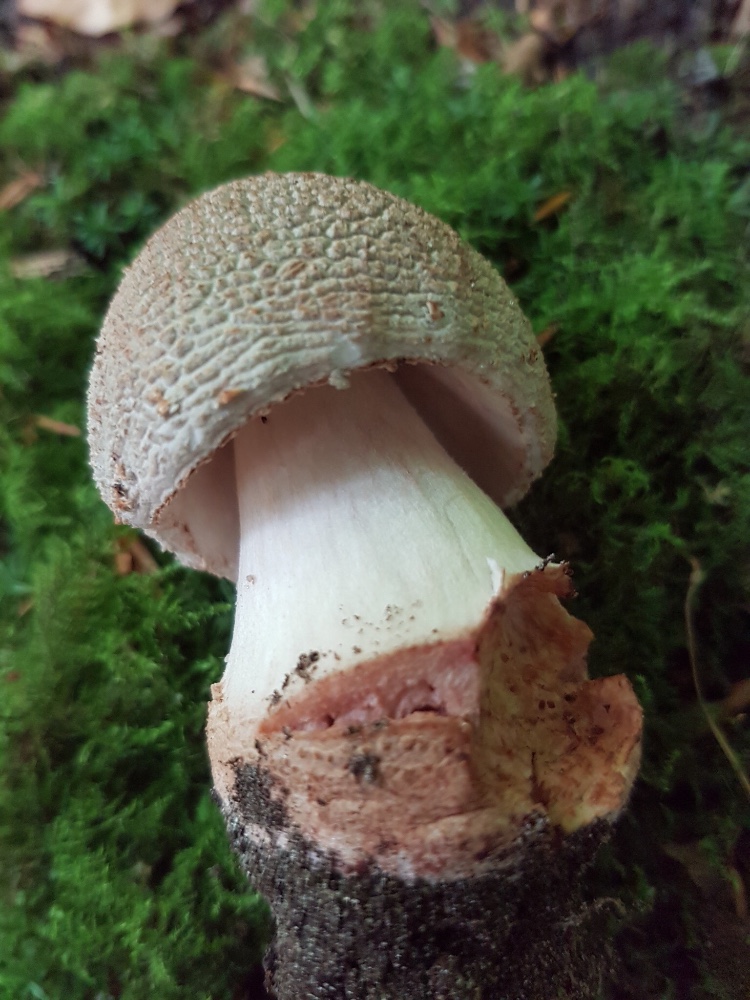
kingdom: Fungi
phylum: Basidiomycota
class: Agaricomycetes
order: Agaricales
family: Amanitaceae
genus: Amanita
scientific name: Amanita rubescens
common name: rødmende fluesvamp
